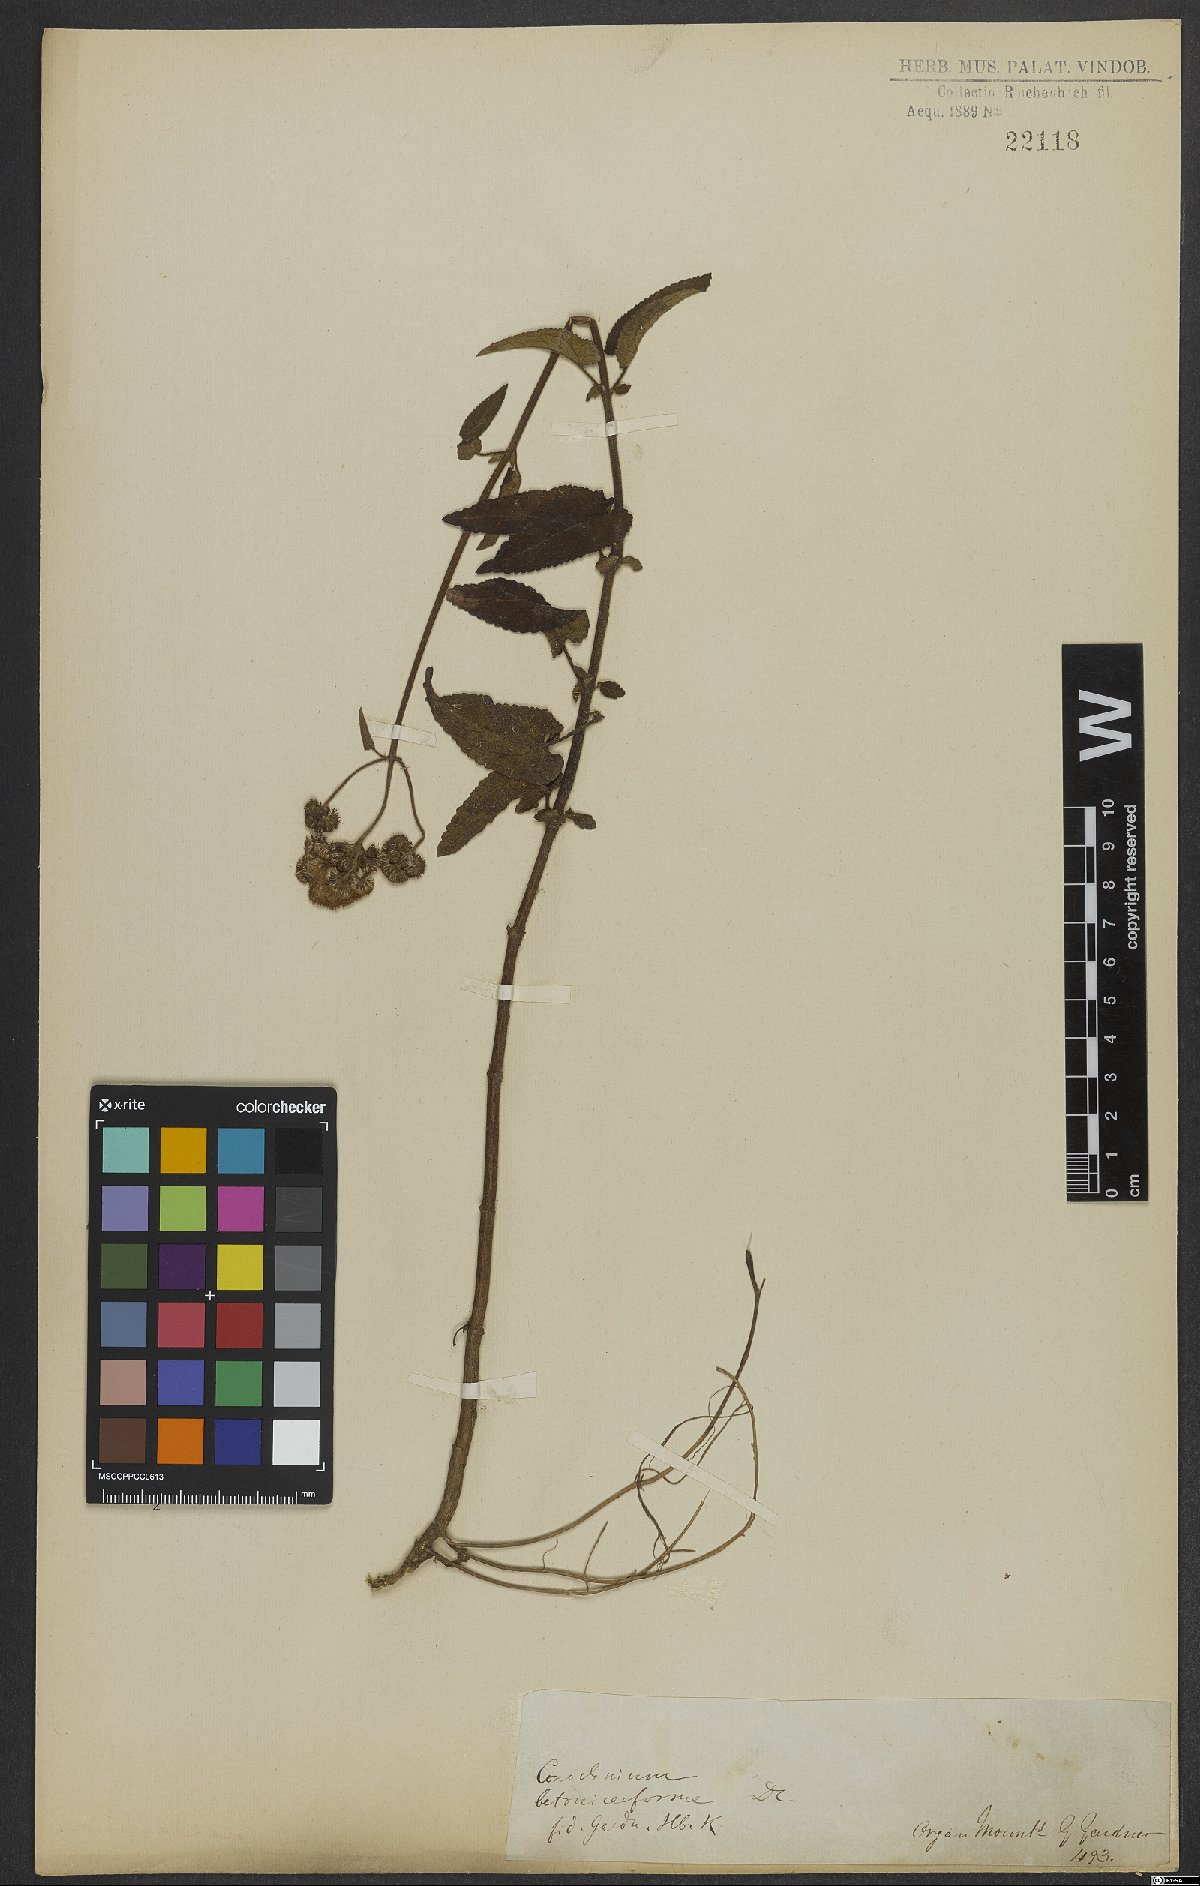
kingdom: Plantae
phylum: Tracheophyta
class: Magnoliopsida
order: Asterales
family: Asteraceae
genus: Barrosoa
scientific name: Barrosoa betoniciformis
